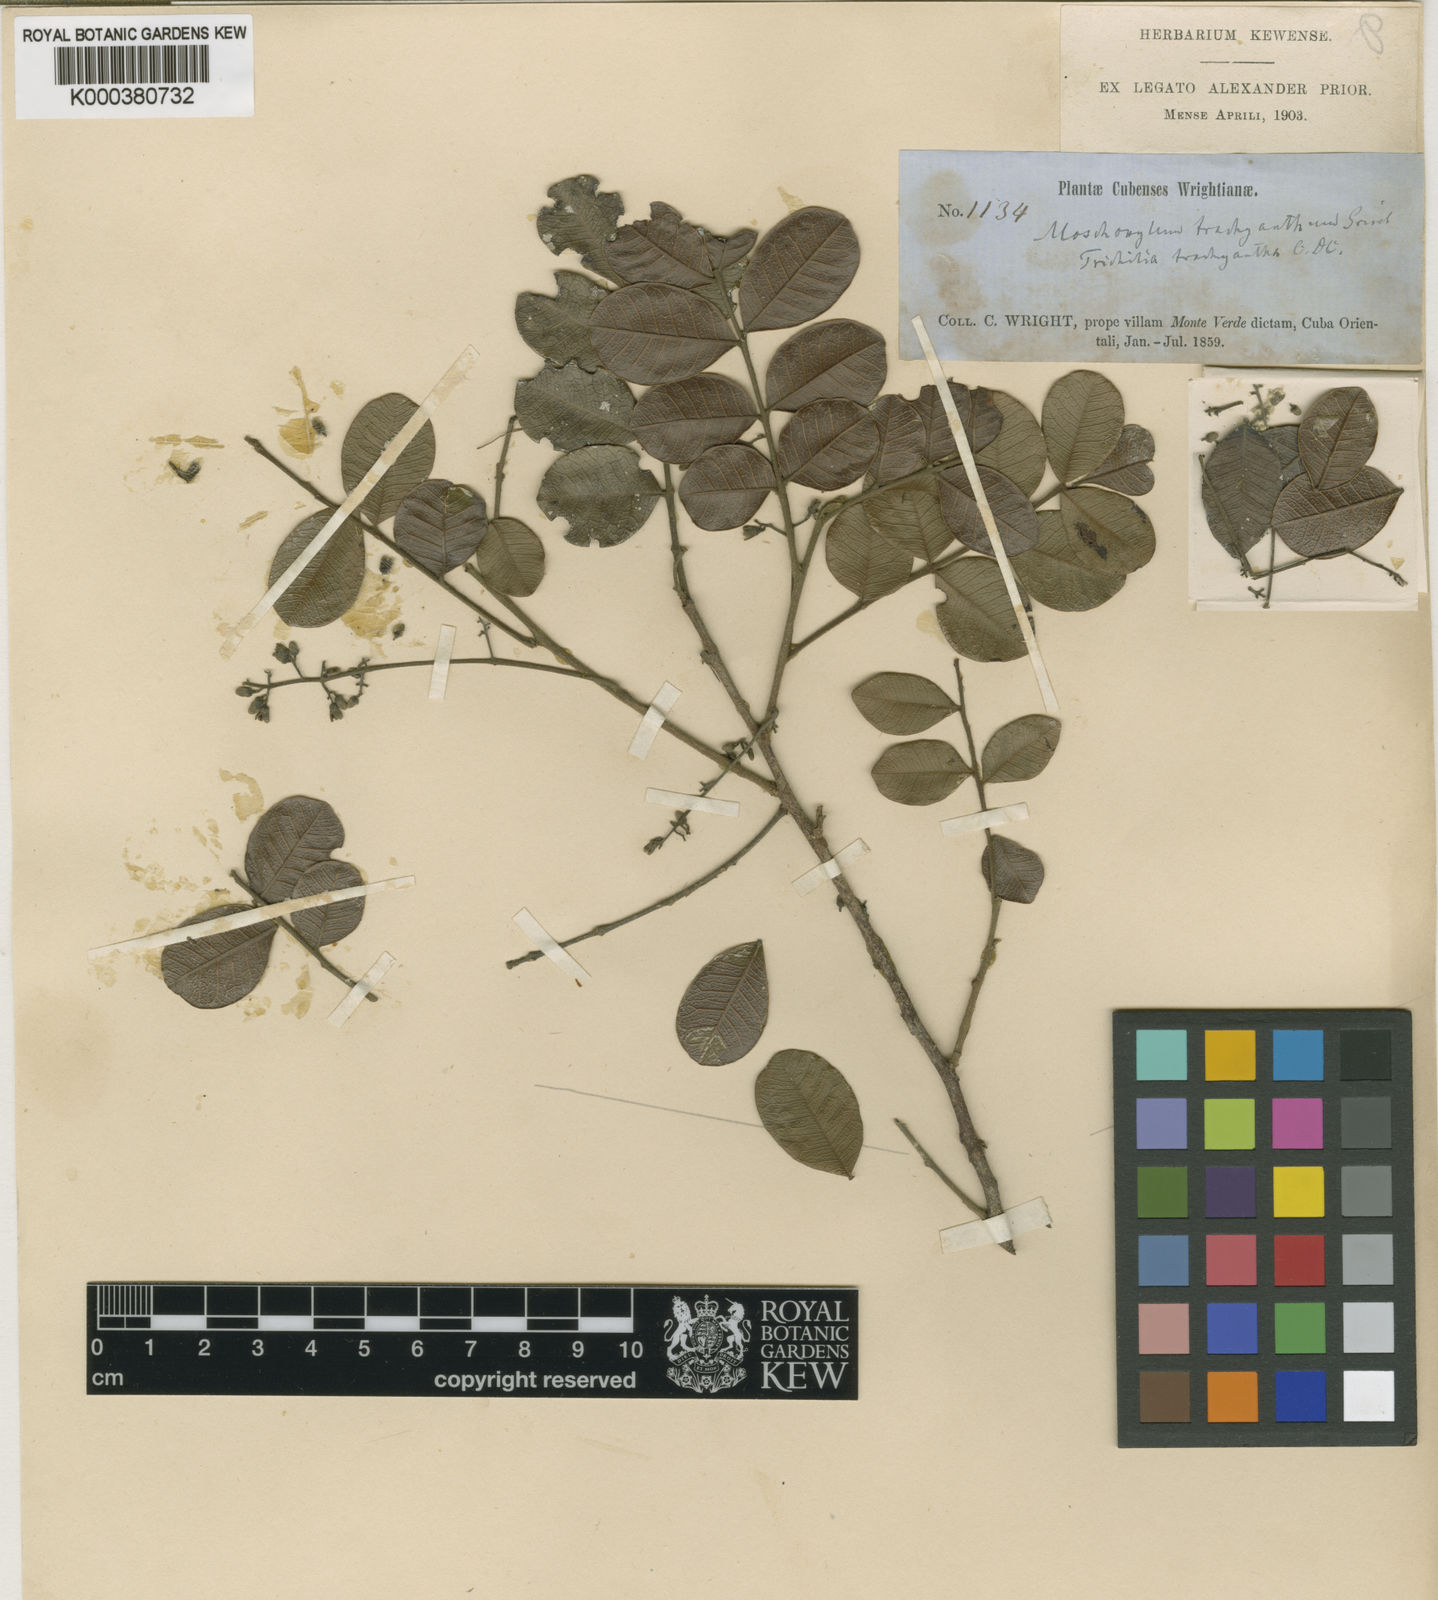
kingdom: Plantae
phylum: Tracheophyta
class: Magnoliopsida
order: Sapindales
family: Meliaceae
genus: Trichilia
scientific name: Trichilia trachyantha
